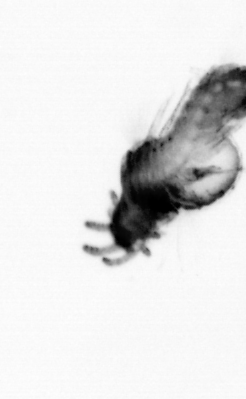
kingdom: Animalia
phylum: Annelida
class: Polychaeta
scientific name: Polychaeta
